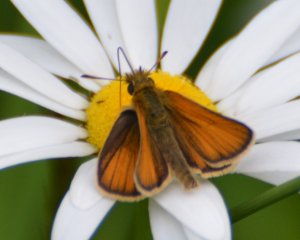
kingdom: Animalia
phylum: Arthropoda
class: Insecta
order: Lepidoptera
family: Hesperiidae
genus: Thymelicus
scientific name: Thymelicus lineola
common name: European Skipper
